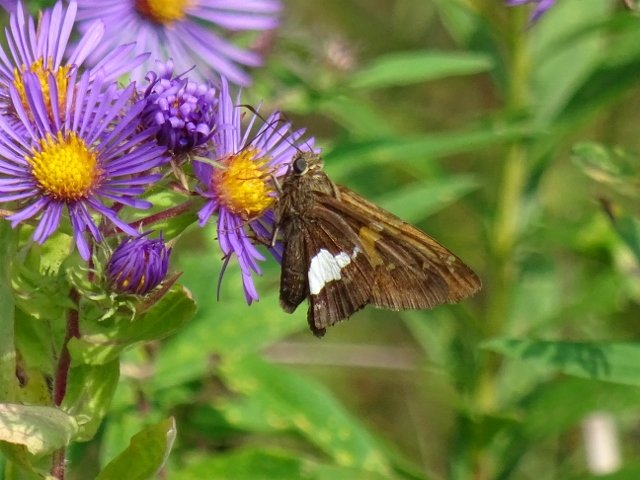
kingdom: Animalia
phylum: Arthropoda
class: Insecta
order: Lepidoptera
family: Hesperiidae
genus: Epargyreus
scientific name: Epargyreus clarus
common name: Silver-spotted Skipper
